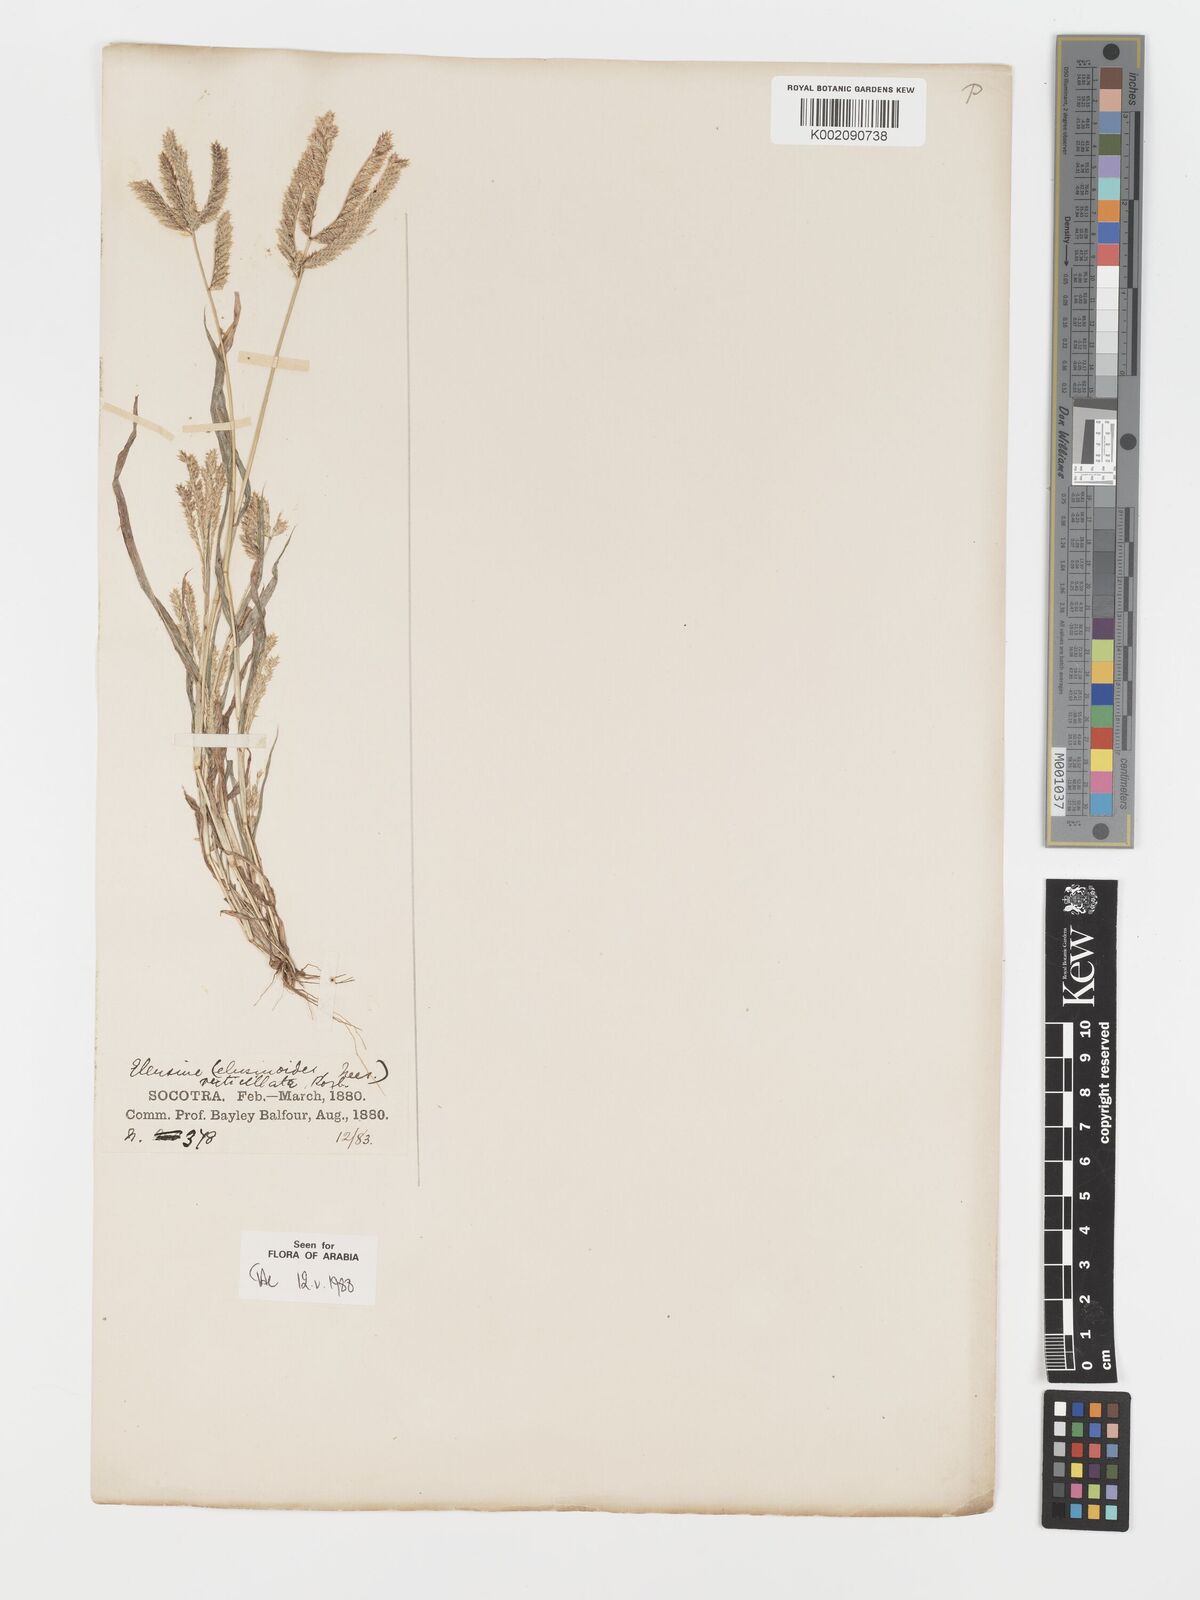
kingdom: Plantae
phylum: Tracheophyta
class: Liliopsida
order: Poales
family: Poaceae
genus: Acrachne
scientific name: Acrachne racemosa
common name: Goosegrass
